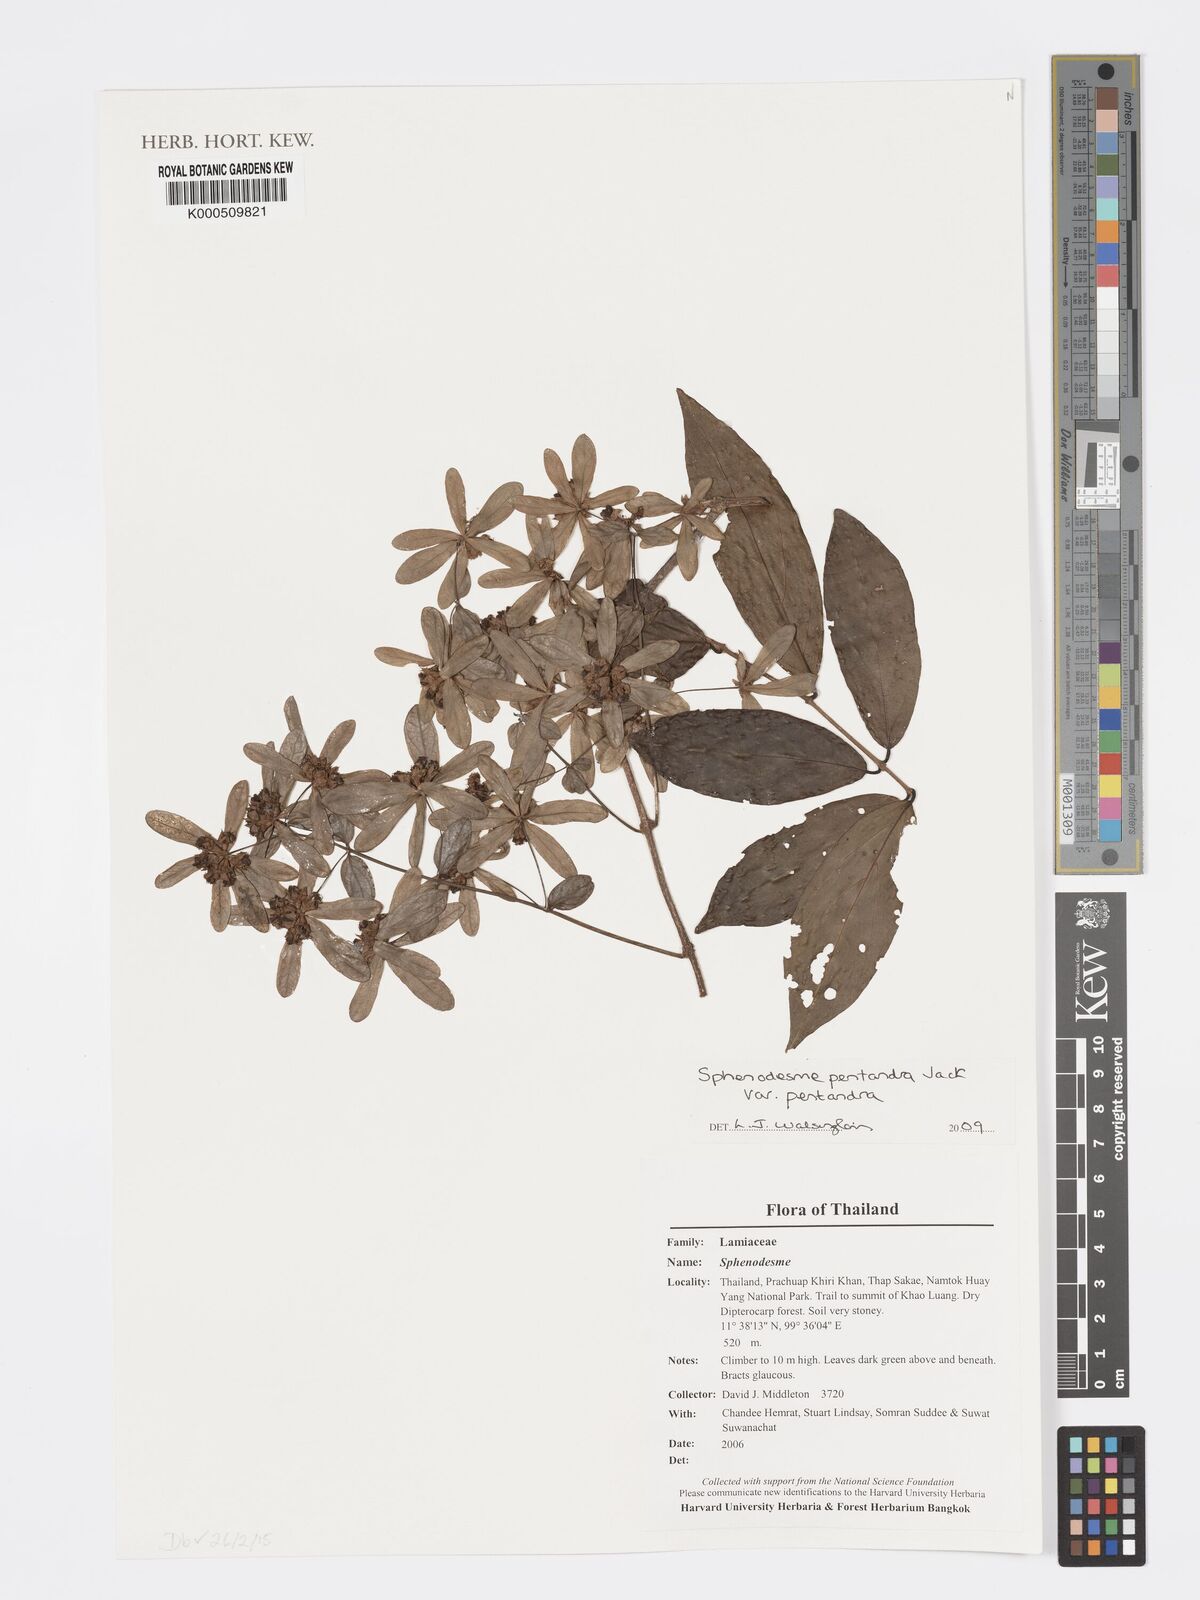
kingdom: Plantae
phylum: Tracheophyta
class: Magnoliopsida
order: Lamiales
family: Lamiaceae
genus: Sphenodesme
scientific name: Sphenodesme pentandra
